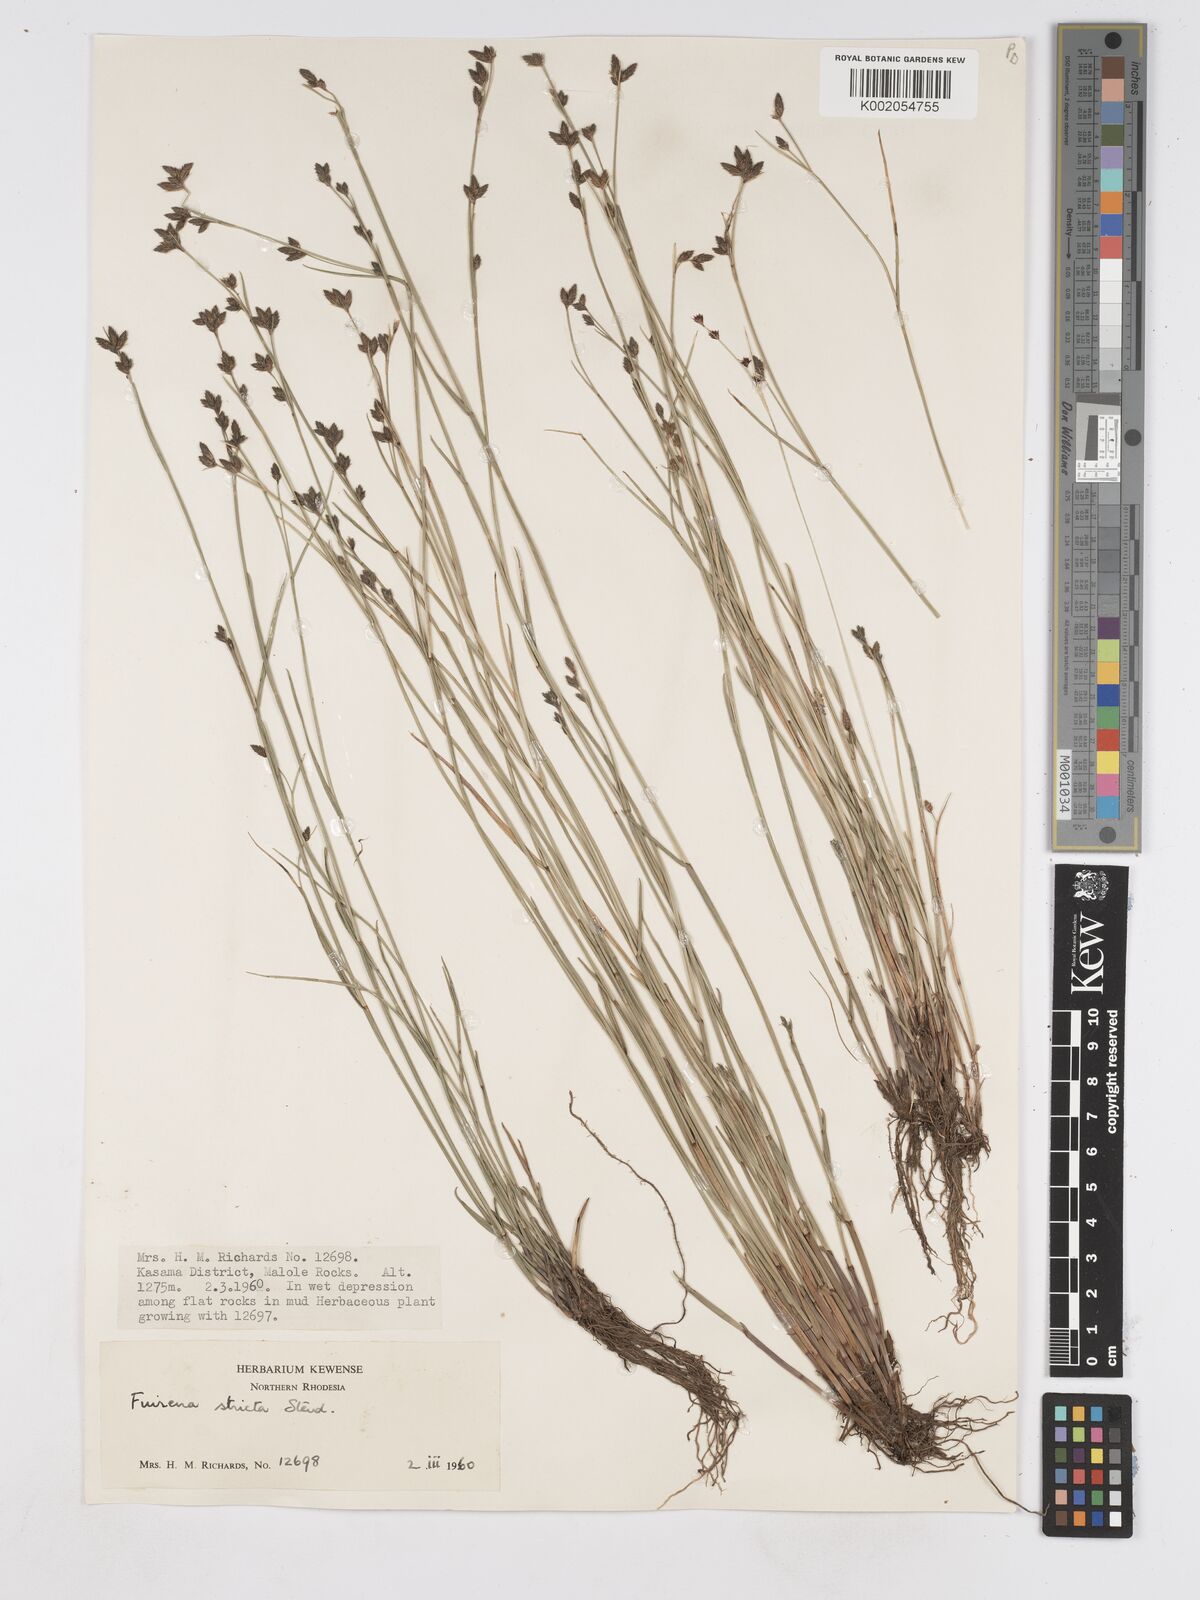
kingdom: Plantae
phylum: Tracheophyta
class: Liliopsida
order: Poales
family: Cyperaceae
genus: Fuirena
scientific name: Fuirena stricta
